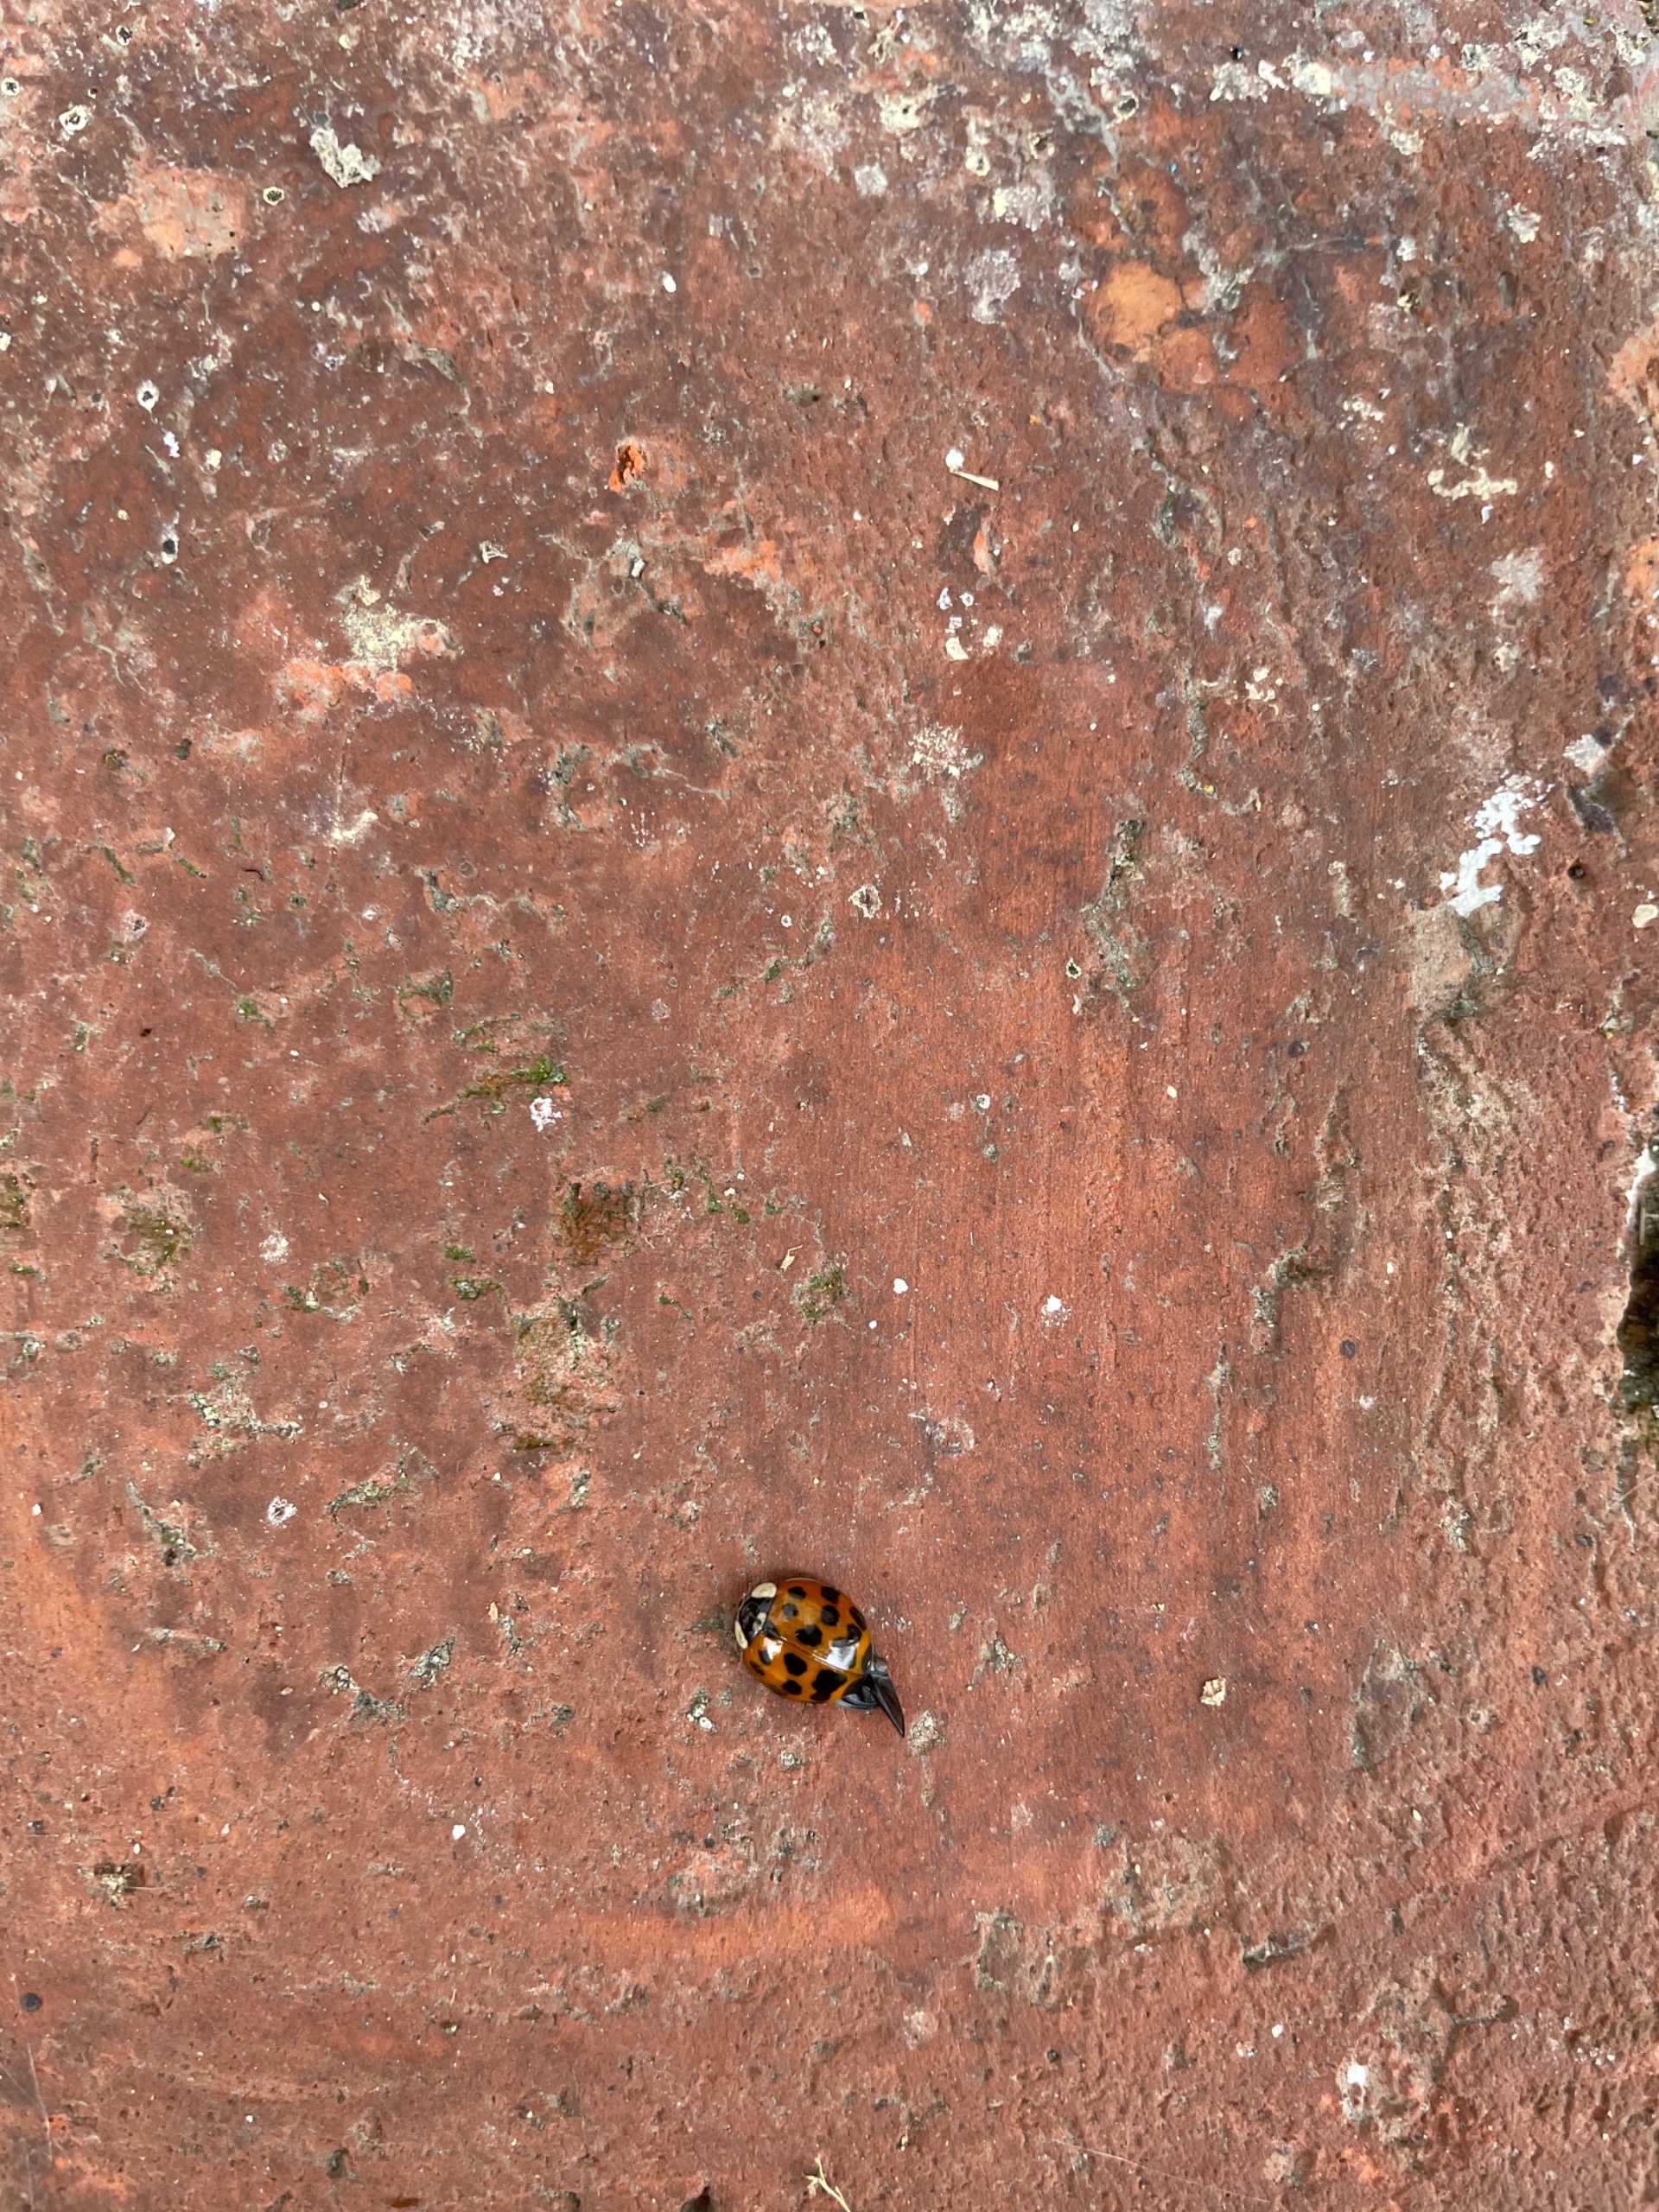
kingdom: Animalia
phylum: Arthropoda
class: Insecta
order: Coleoptera
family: Coccinellidae
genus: Harmonia
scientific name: Harmonia axyridis
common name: Harlekinmariehøne
